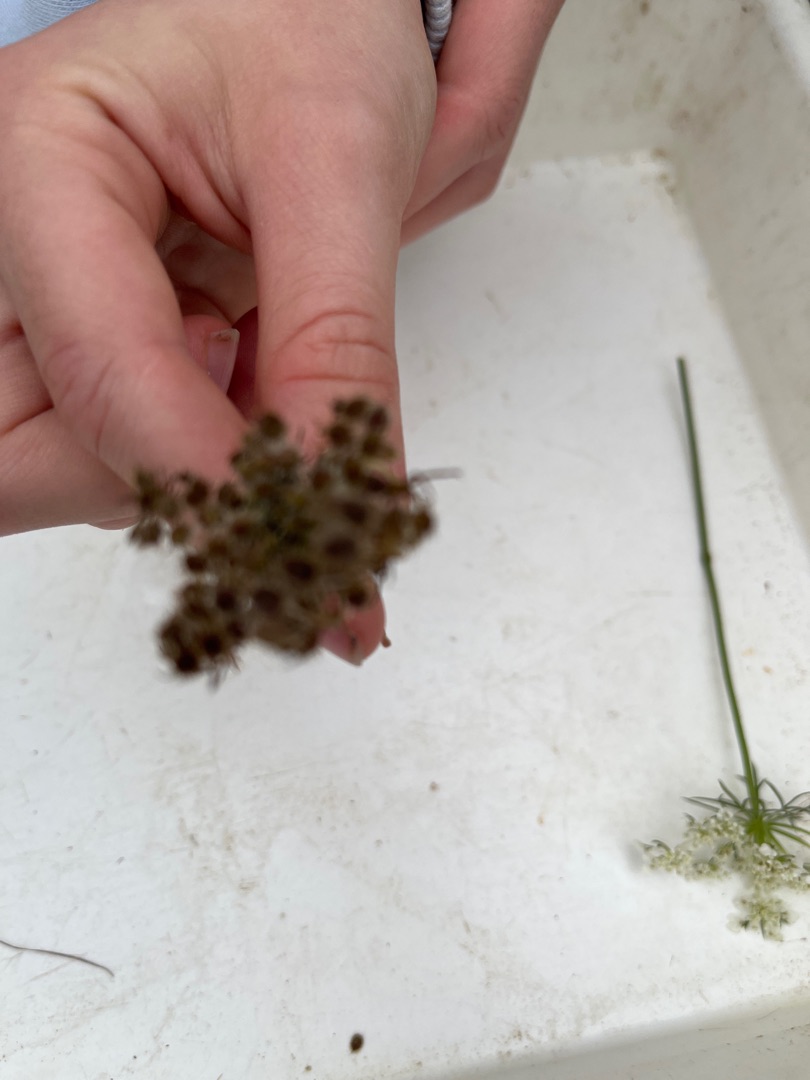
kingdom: Plantae
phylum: Tracheophyta
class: Magnoliopsida
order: Apiales
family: Apiaceae
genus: Daucus
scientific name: Daucus carota
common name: Gulerod
